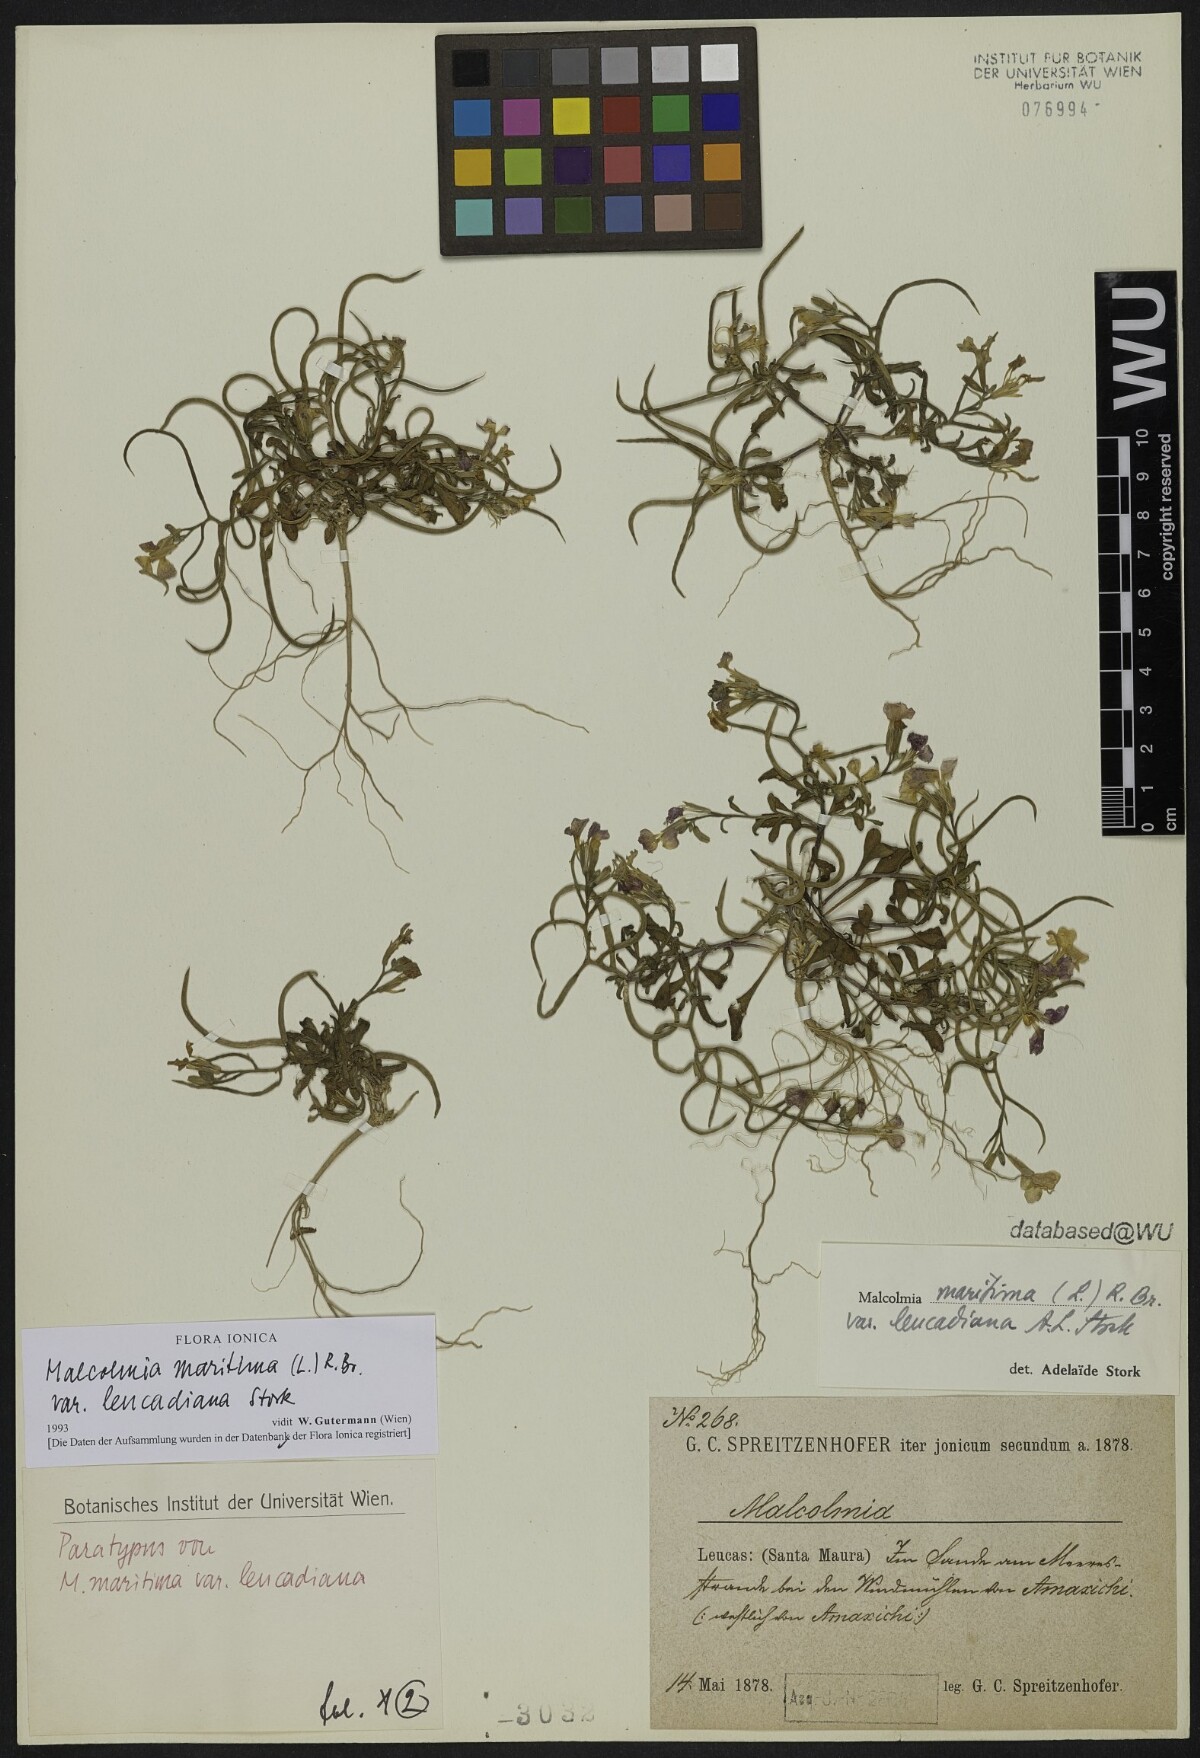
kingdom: Plantae
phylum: Tracheophyta
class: Magnoliopsida
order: Brassicales
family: Brassicaceae
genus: Malcolmia
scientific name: Malcolmia maritima
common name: Virginia stock
